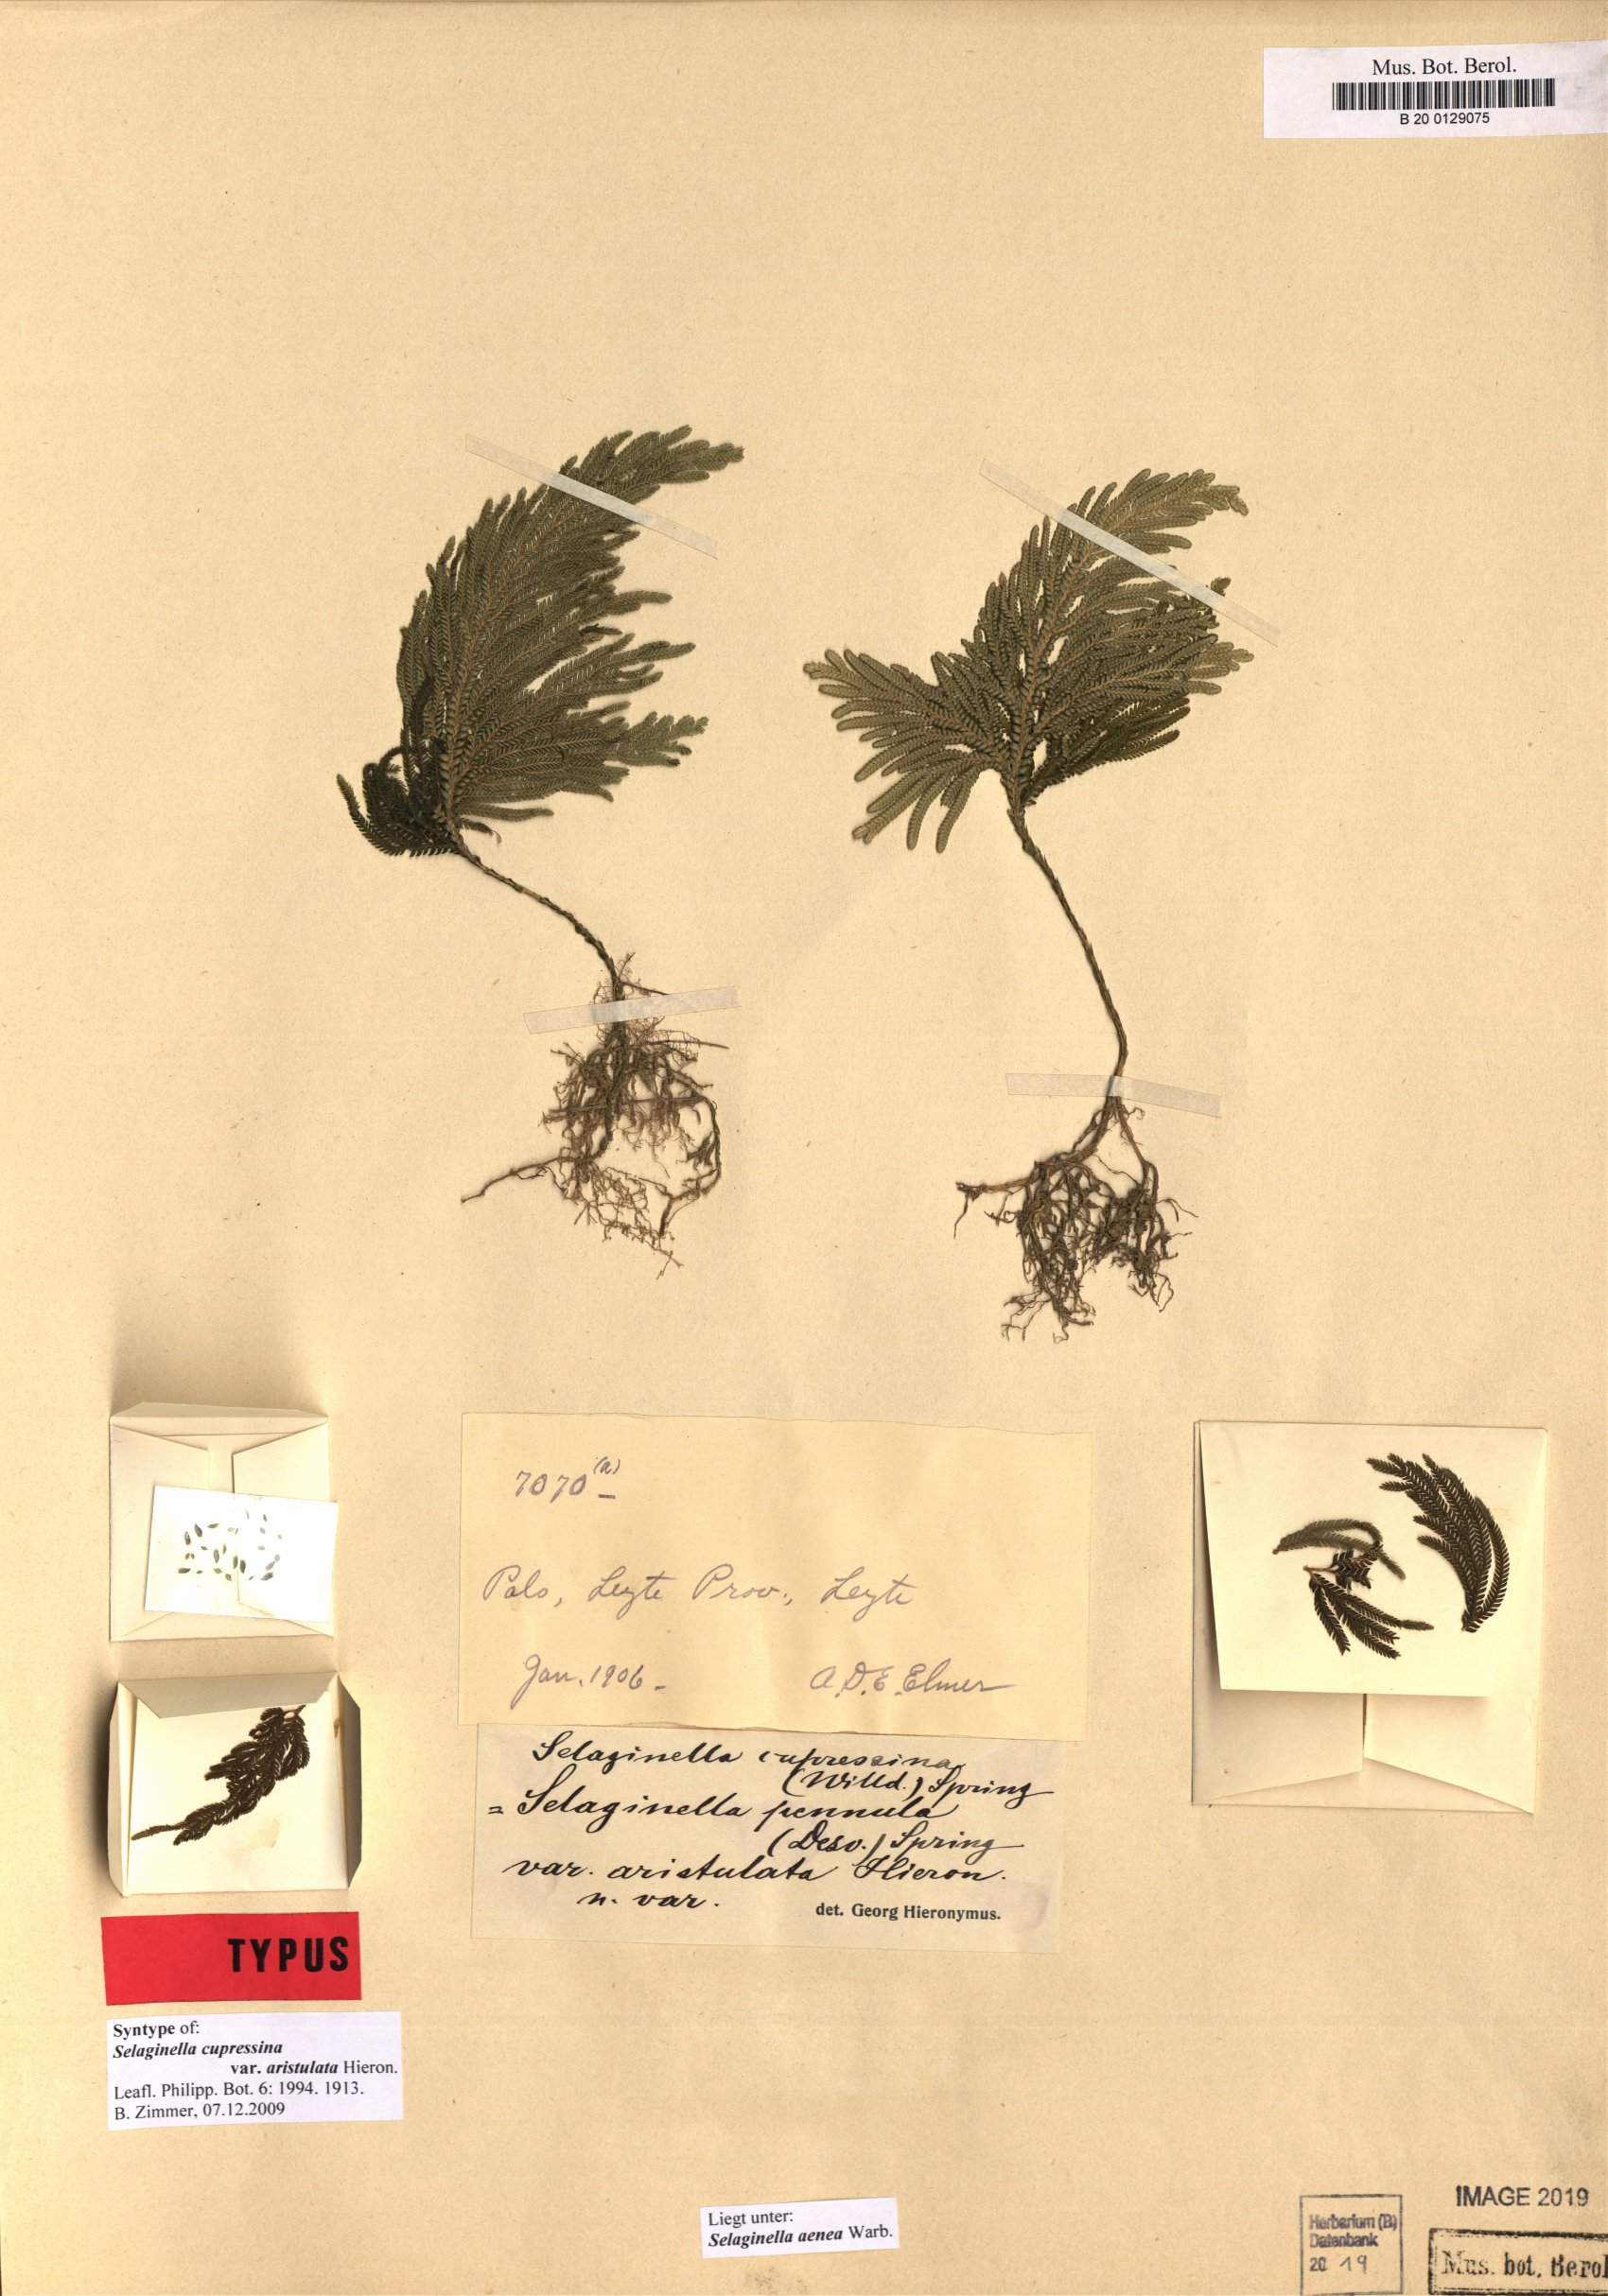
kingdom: Plantae
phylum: Tracheophyta
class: Lycopodiopsida
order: Selaginellales
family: Selaginellaceae
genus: Selaginella
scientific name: Selaginella aenea
